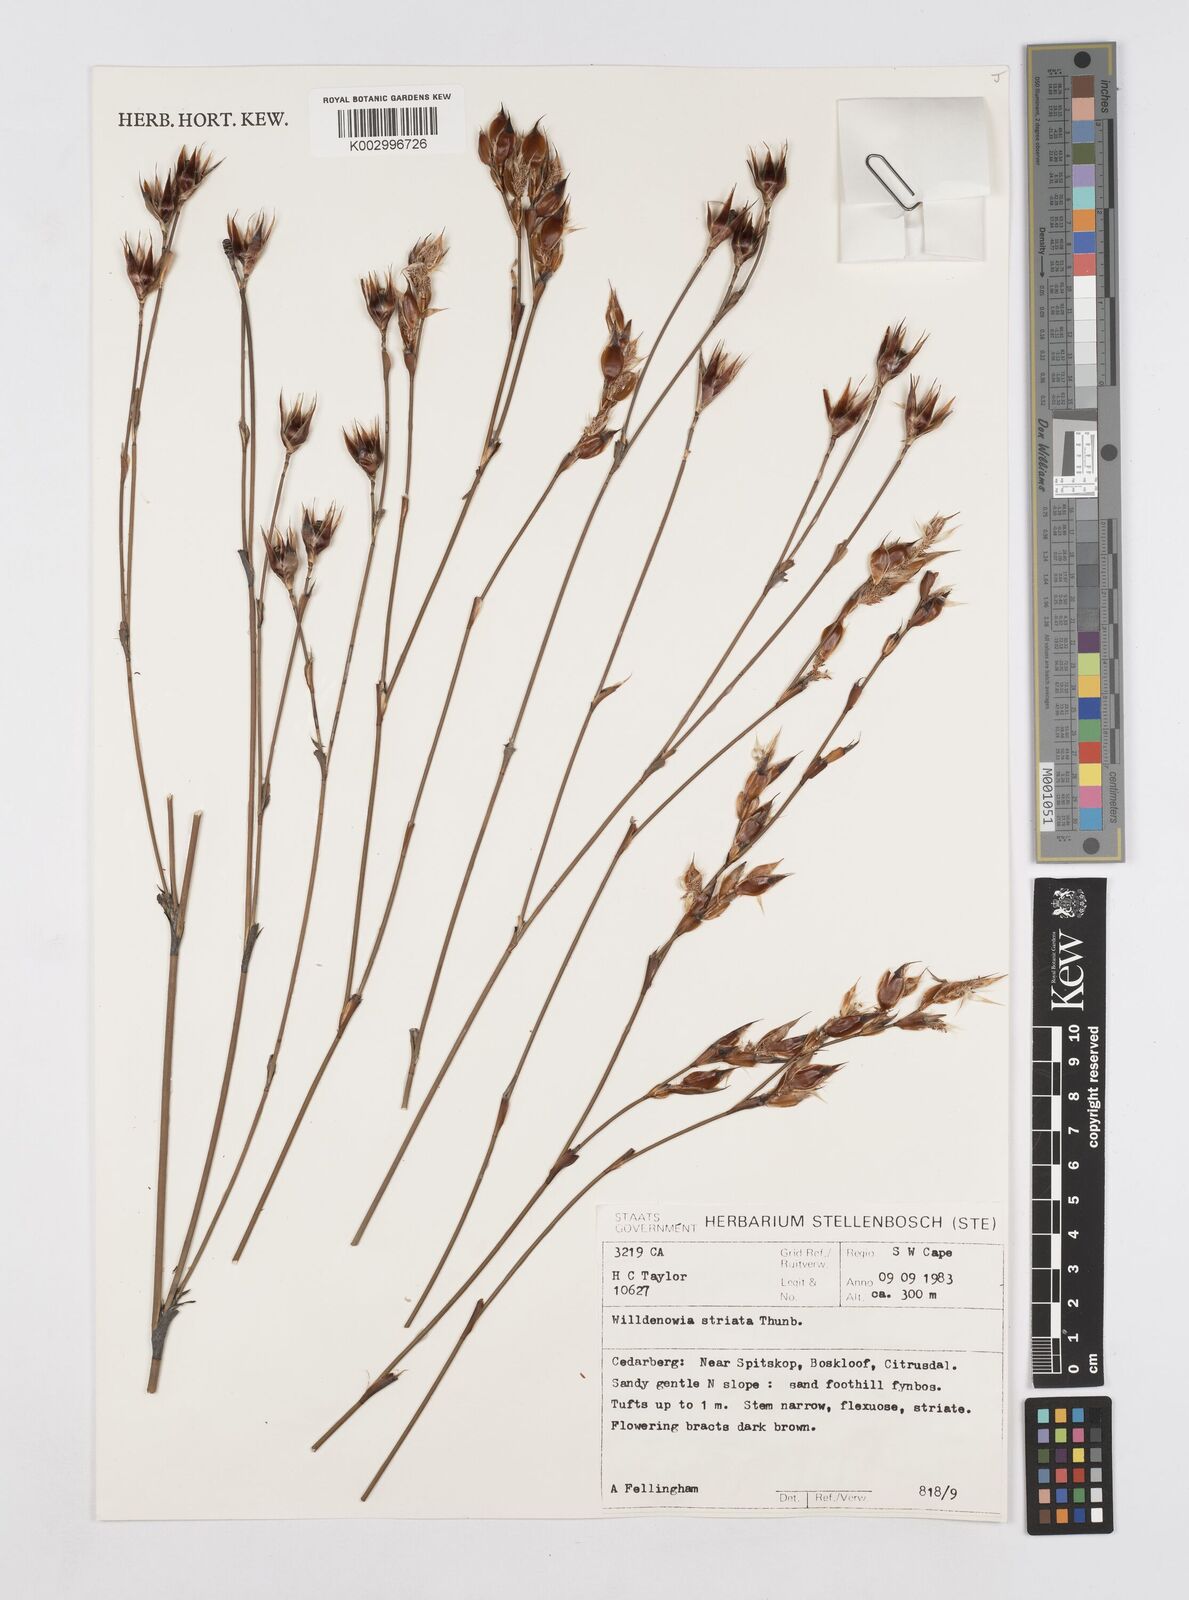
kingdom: Plantae
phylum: Tracheophyta
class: Liliopsida
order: Poales
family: Restionaceae
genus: Willdenowia
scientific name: Willdenowia incurvata
